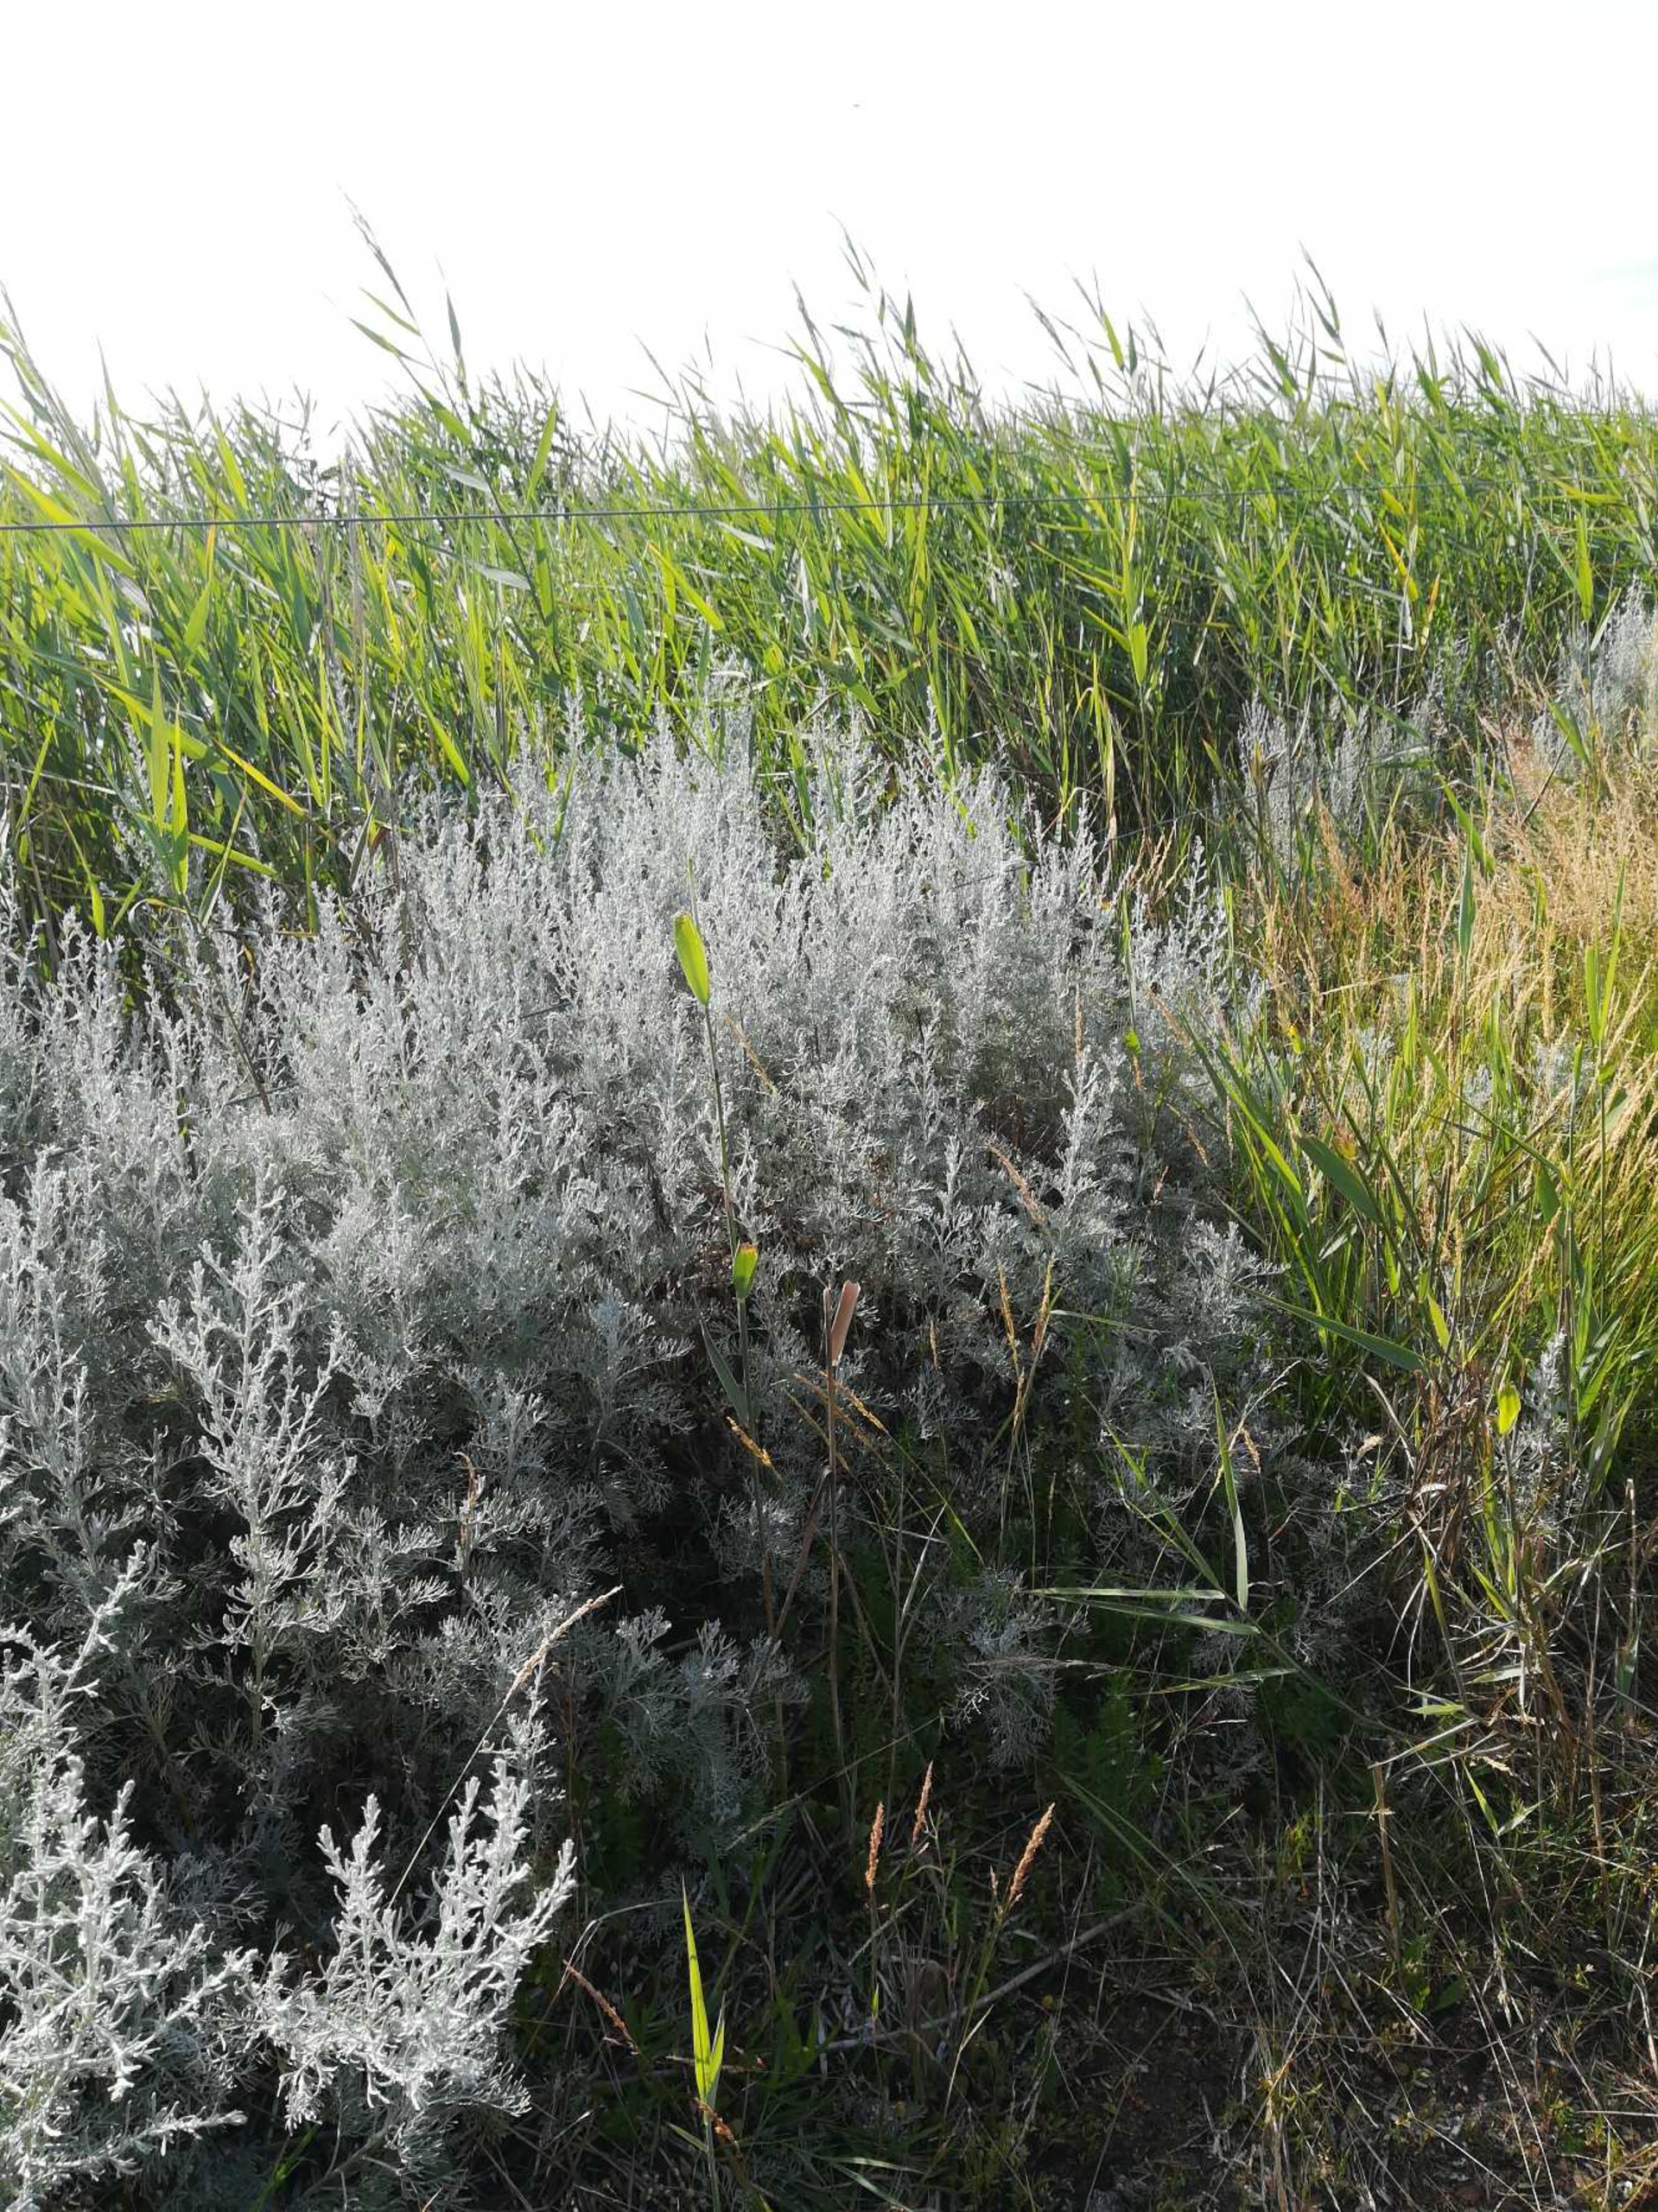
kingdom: Plantae
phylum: Tracheophyta
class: Magnoliopsida
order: Asterales
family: Asteraceae
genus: Artemisia
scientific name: Artemisia maritima
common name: Strandmalurt
